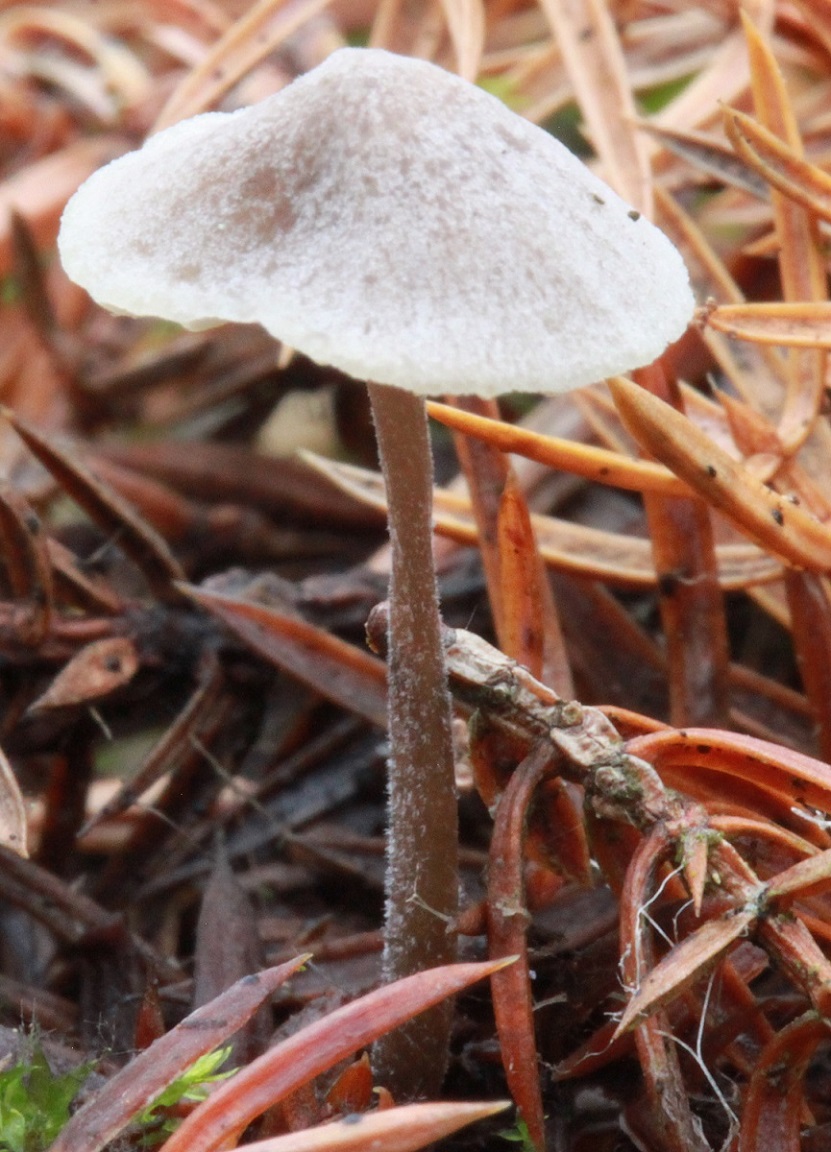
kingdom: Fungi
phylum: Basidiomycota
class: Agaricomycetes
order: Agaricales
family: Mycenaceae
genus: Mycena
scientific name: Mycena cretata
